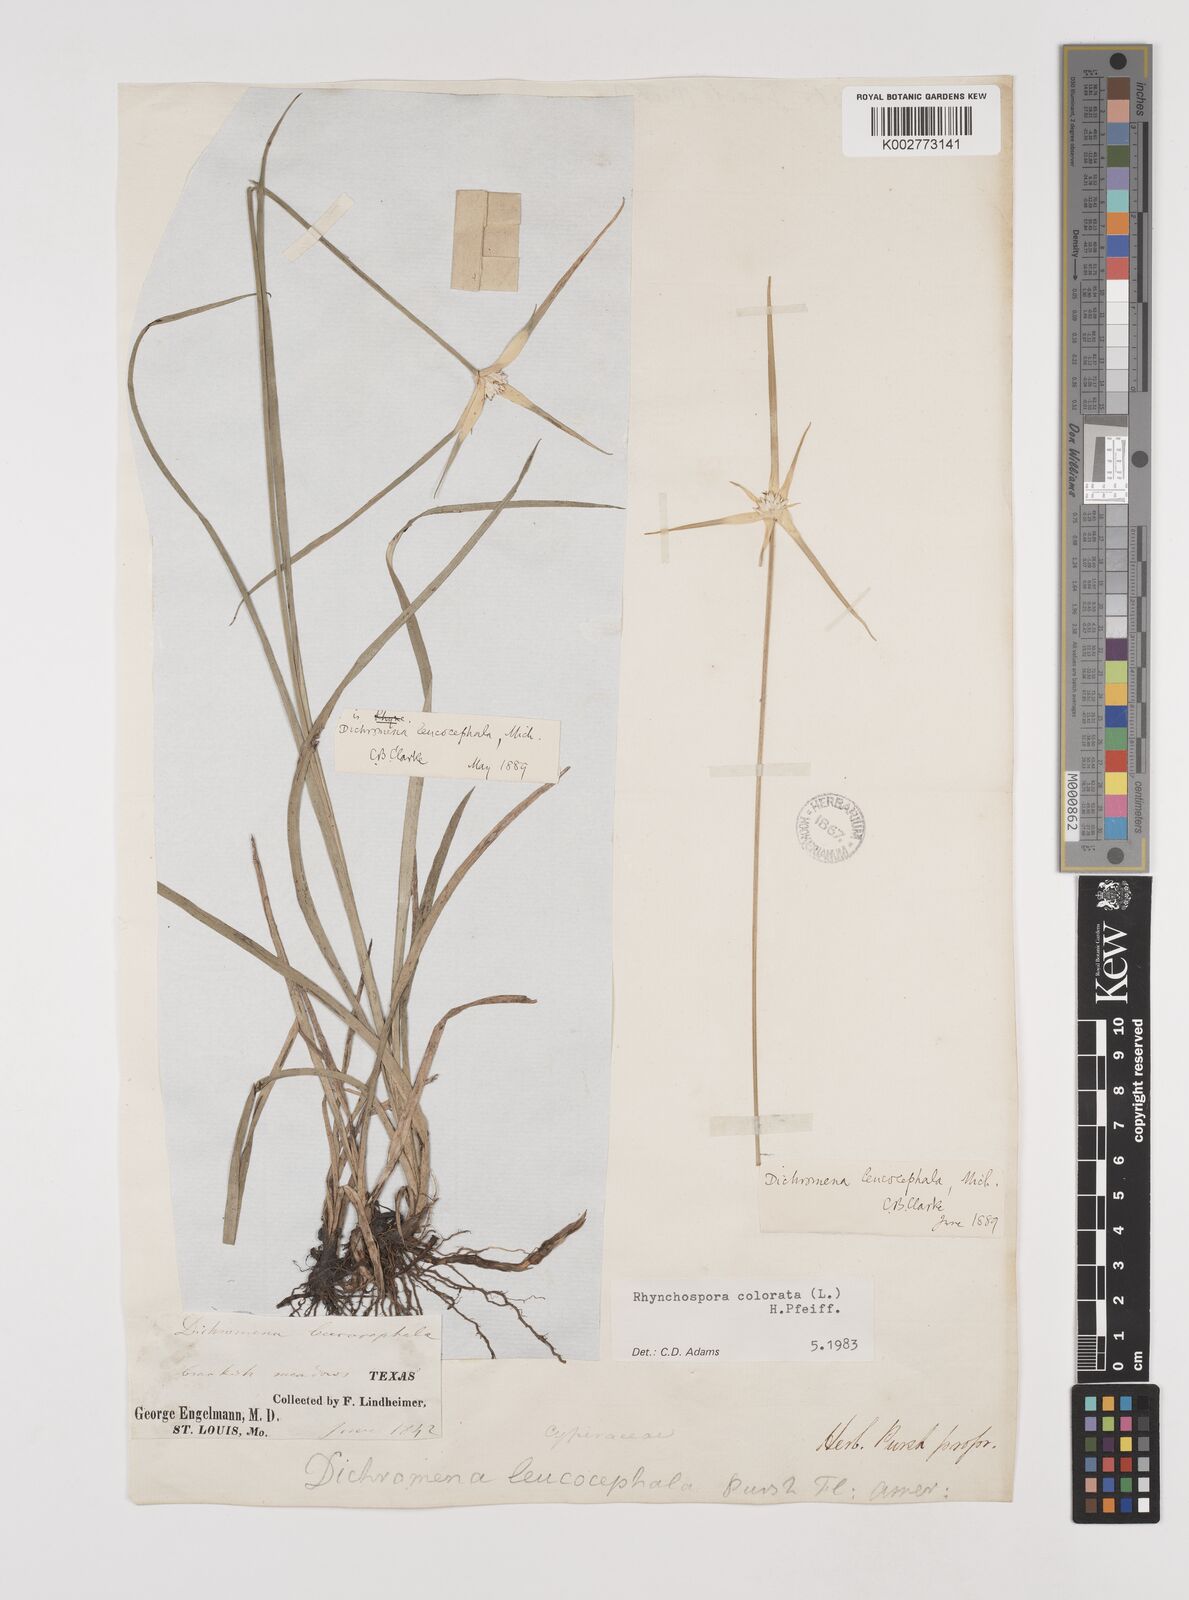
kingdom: Plantae
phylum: Tracheophyta
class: Liliopsida
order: Poales
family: Cyperaceae
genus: Rhynchospora
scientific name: Rhynchospora colorata
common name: Star sedge
